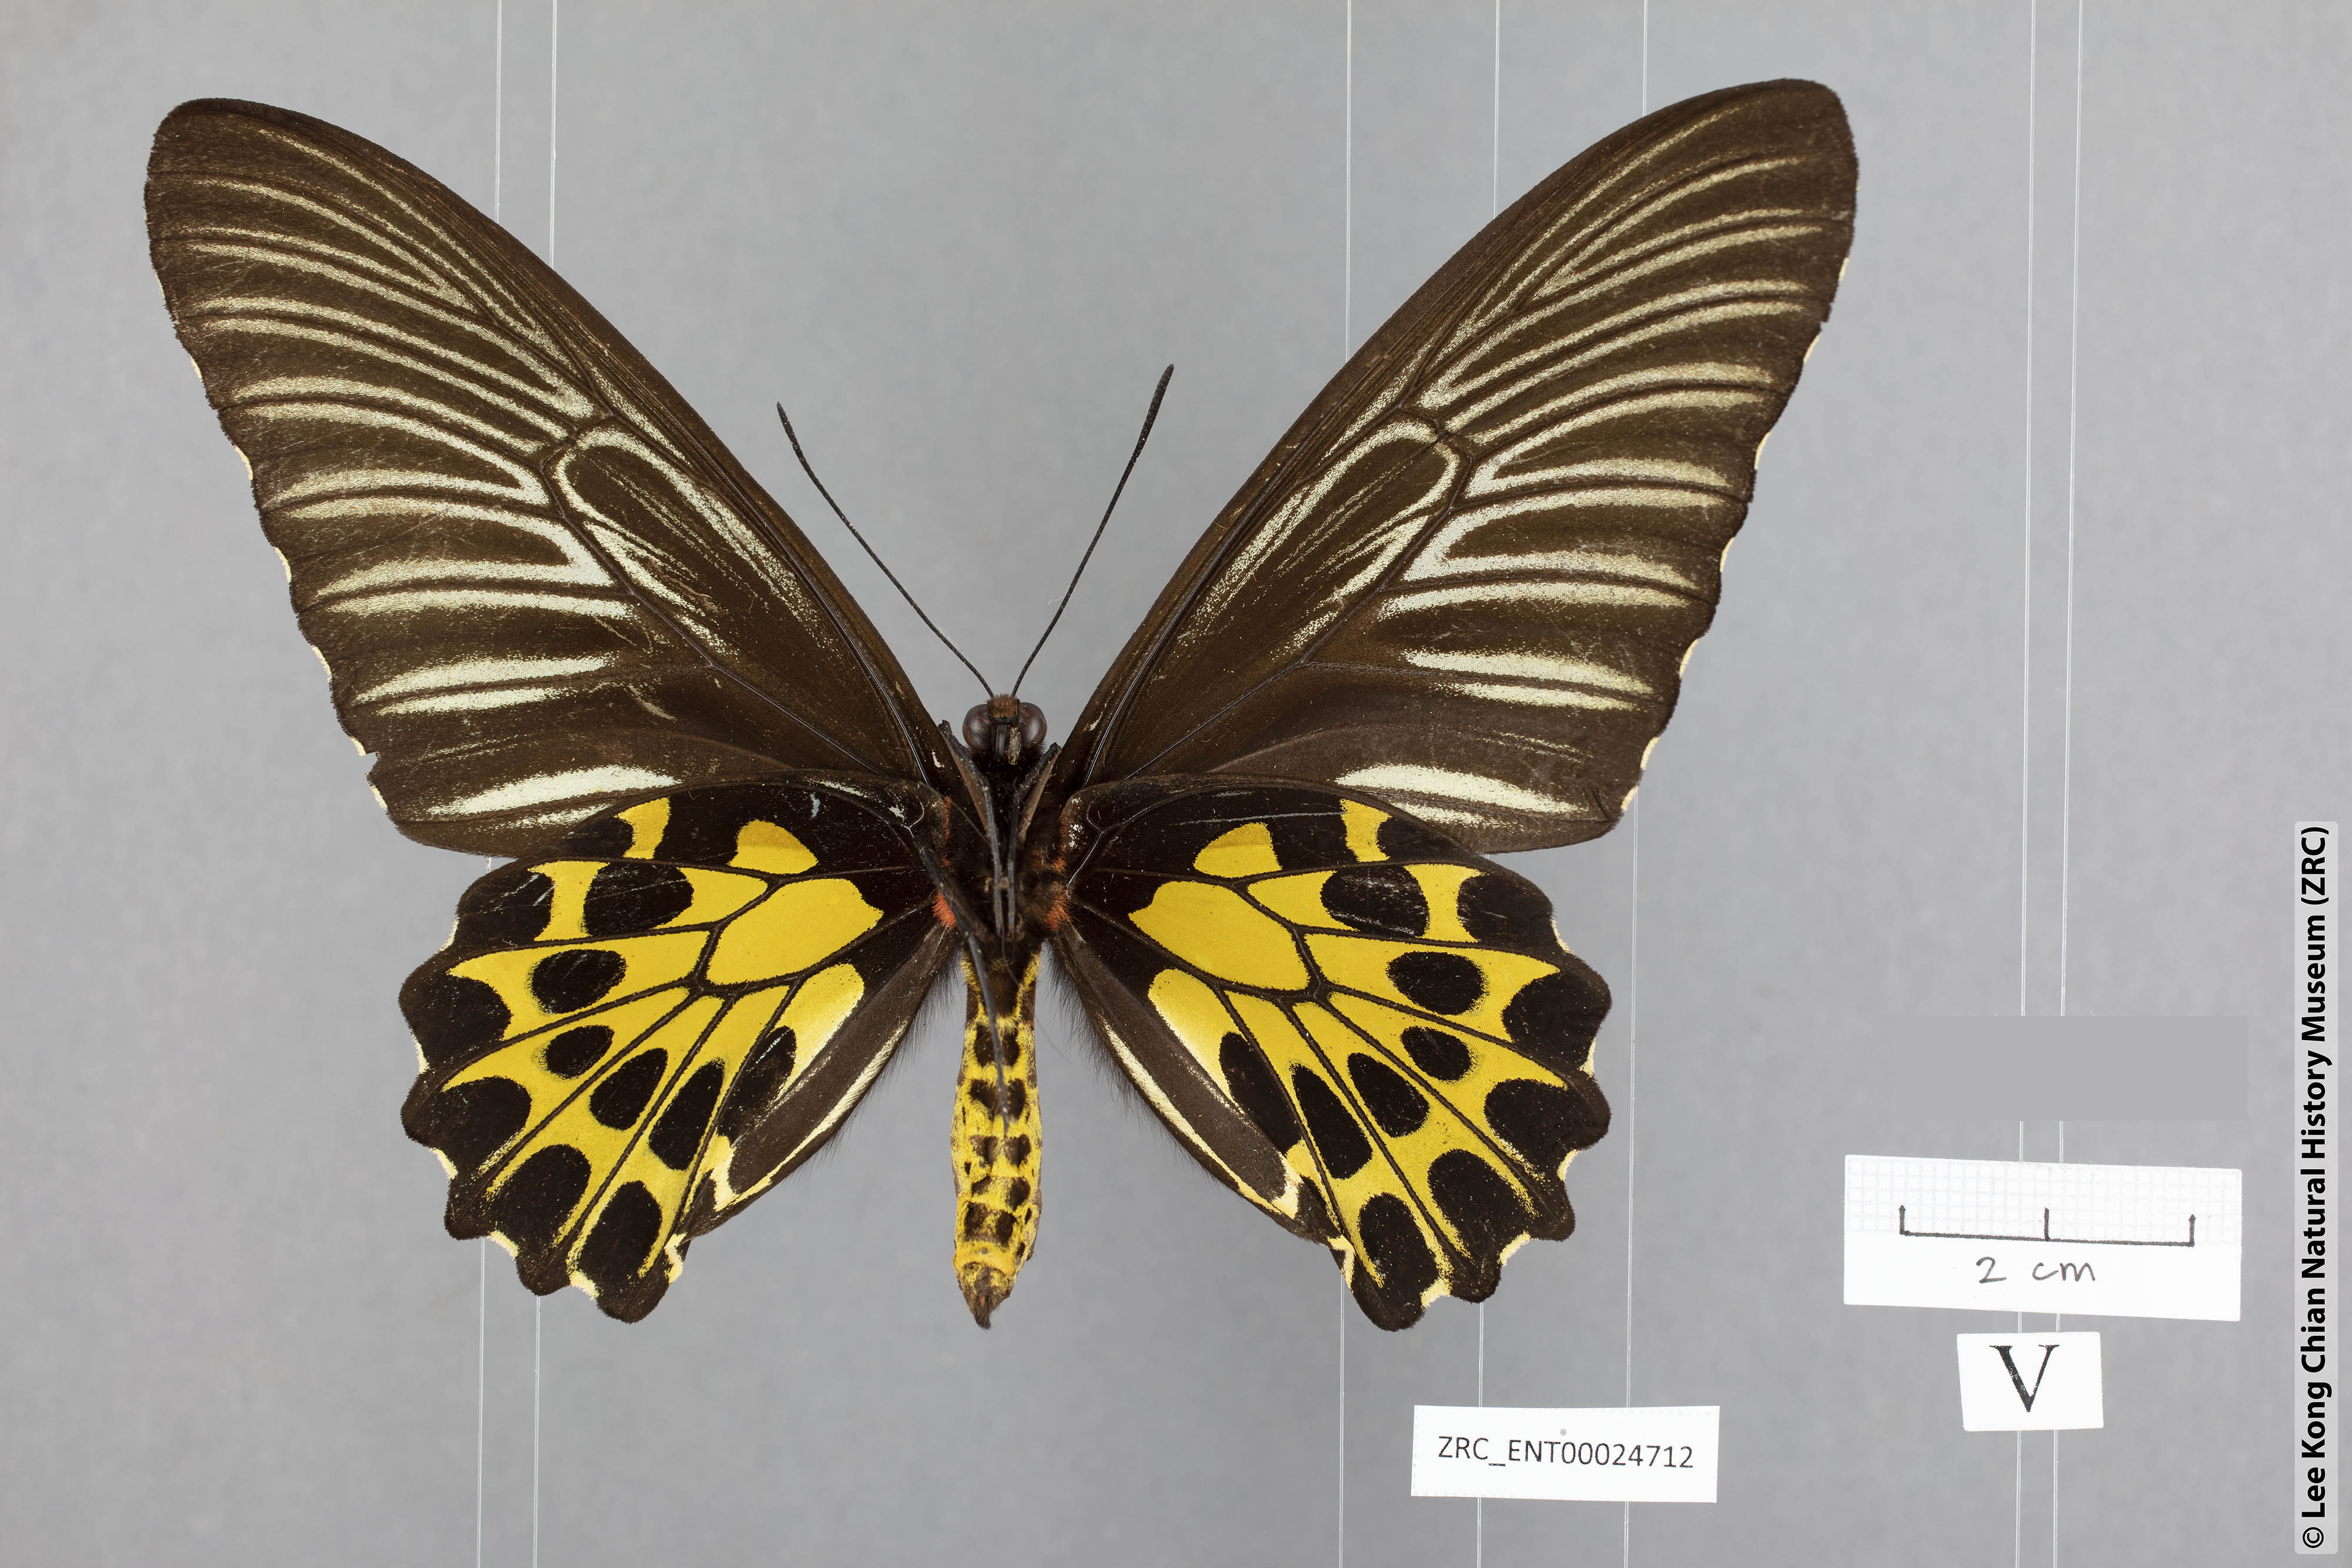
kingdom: Animalia
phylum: Arthropoda
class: Insecta
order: Lepidoptera
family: Papilionidae
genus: Troides
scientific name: Troides aeacus
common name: Golden birdwing
